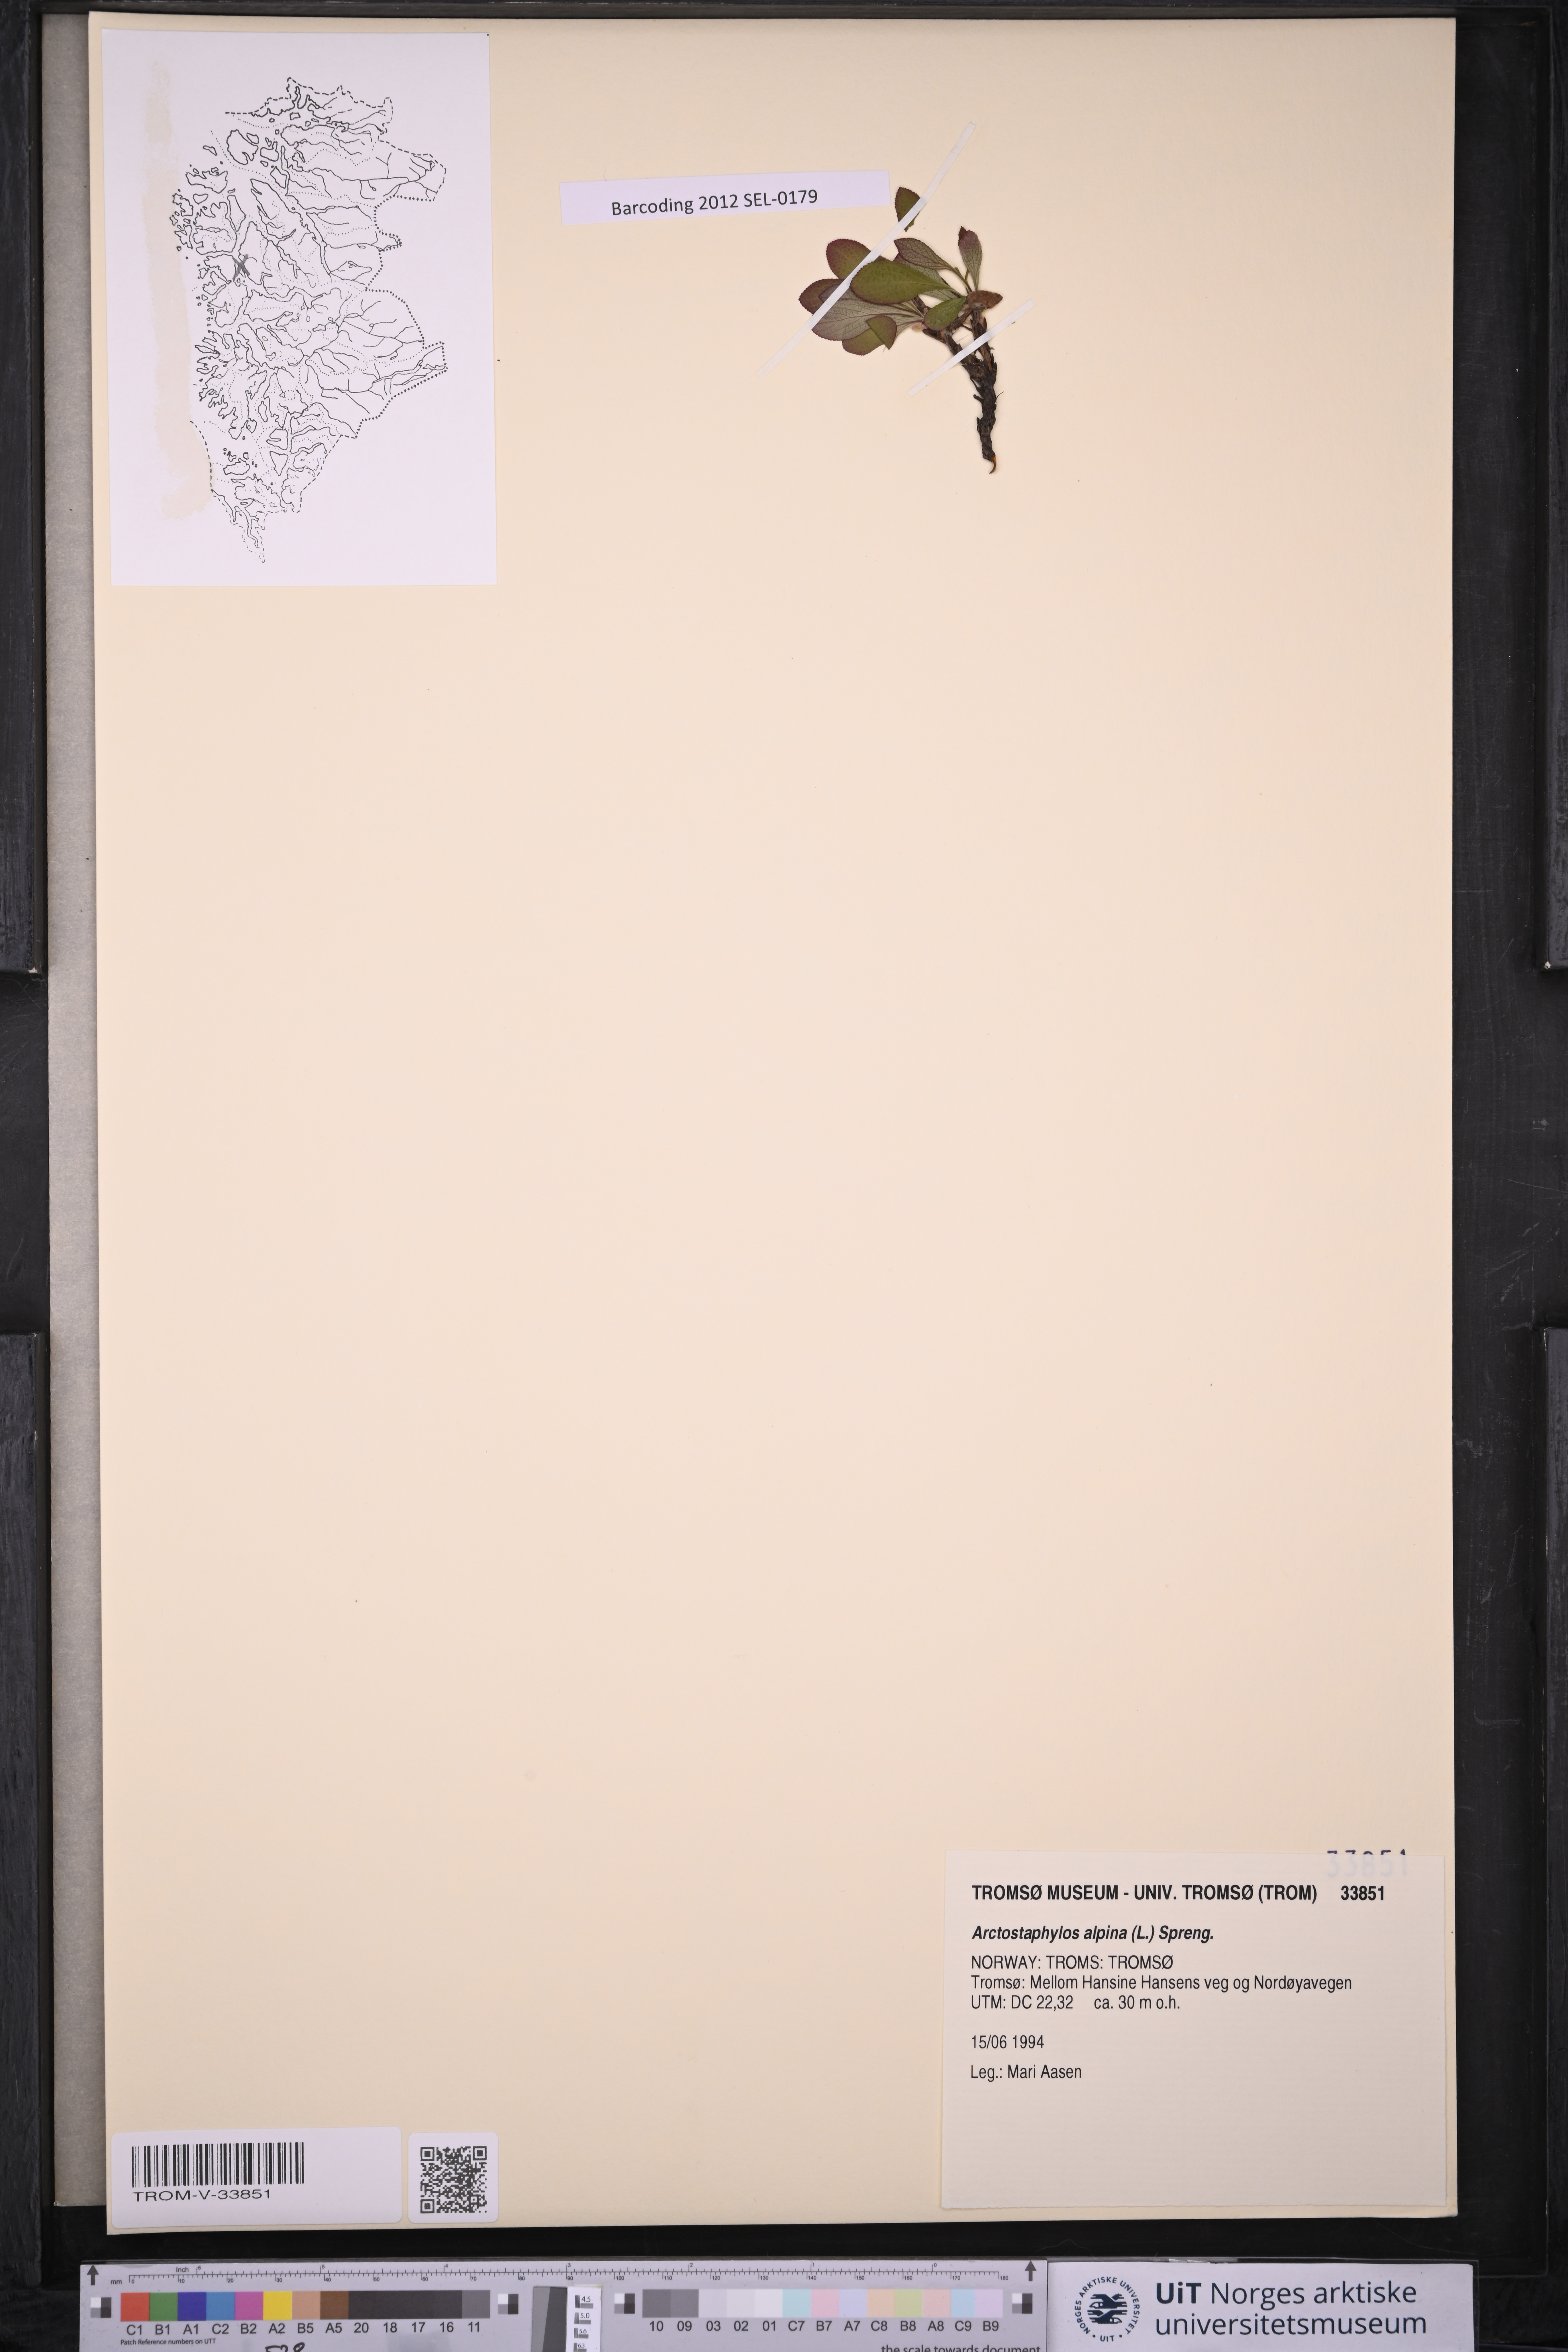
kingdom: Plantae
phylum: Tracheophyta
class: Magnoliopsida
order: Ericales
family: Ericaceae
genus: Arctostaphylos
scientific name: Arctostaphylos alpinus
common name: Alpine bearberry
